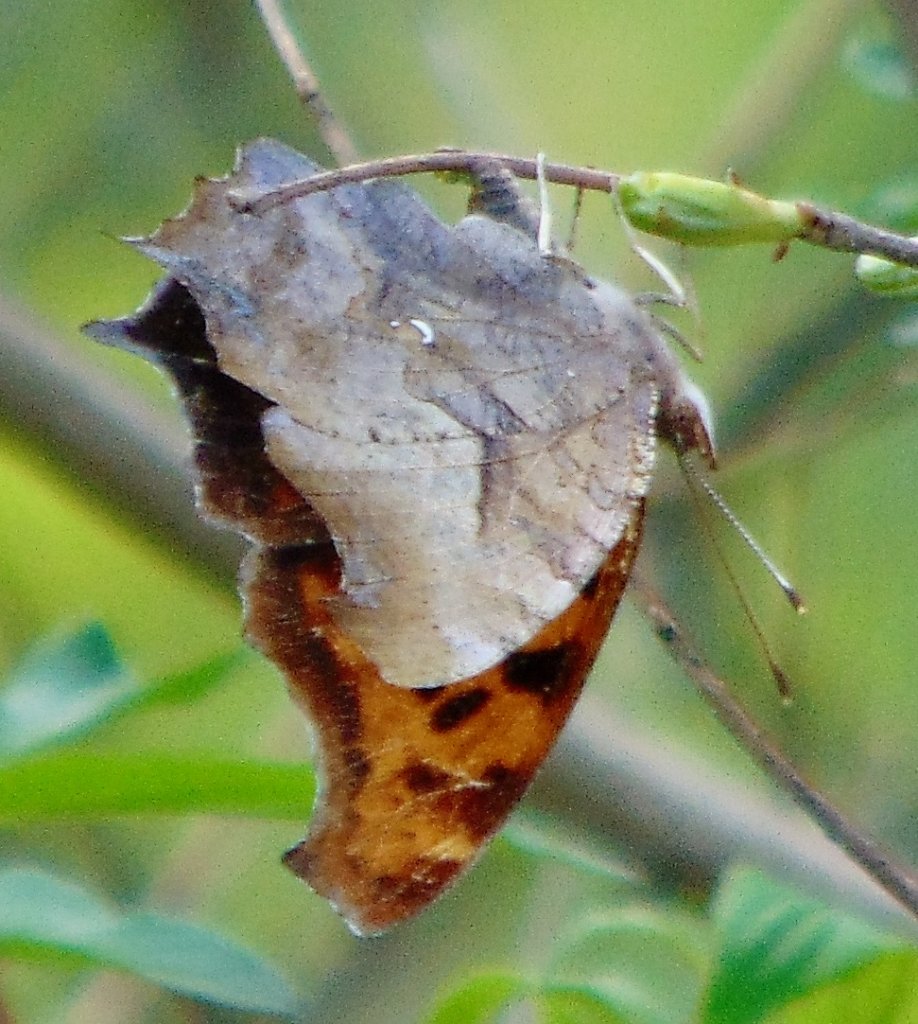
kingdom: Animalia
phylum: Arthropoda
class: Insecta
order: Lepidoptera
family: Nymphalidae
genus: Polygonia
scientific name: Polygonia interrogationis
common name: Question Mark
